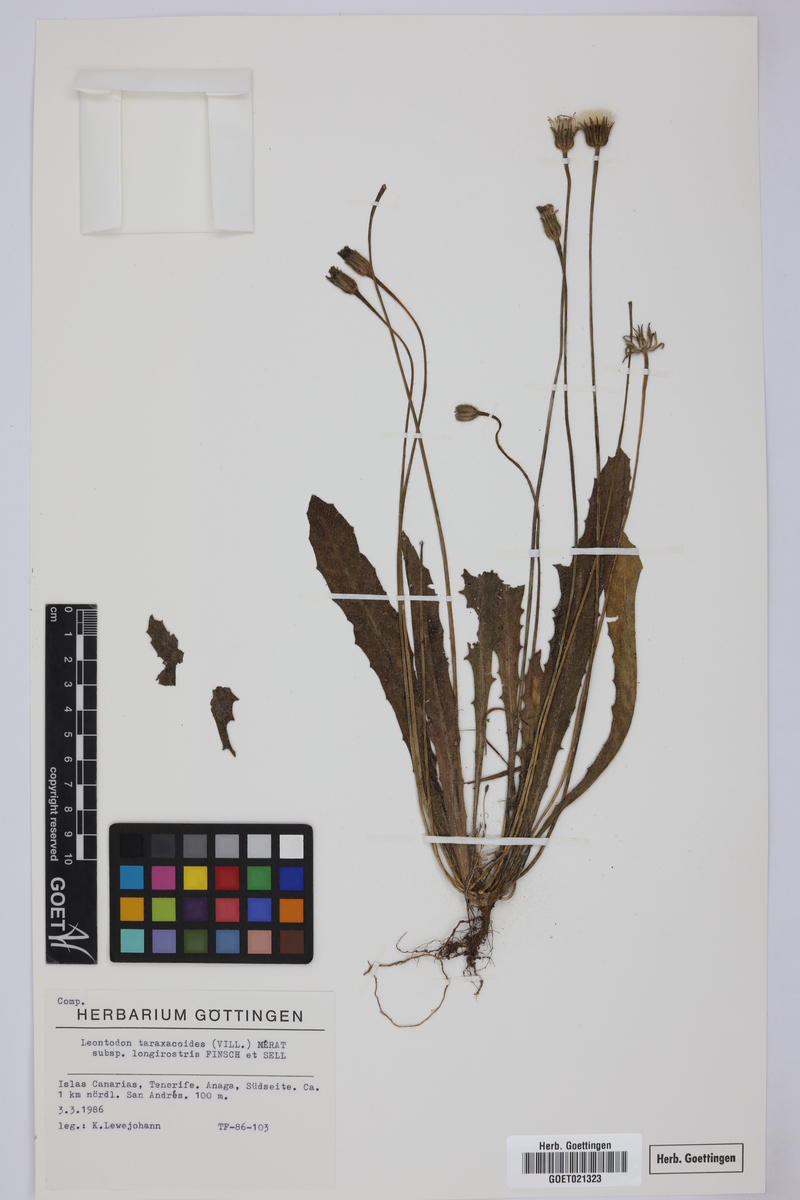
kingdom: Plantae
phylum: Tracheophyta
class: Magnoliopsida
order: Asterales
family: Asteraceae
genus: Thrincia
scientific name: Thrincia hispida
